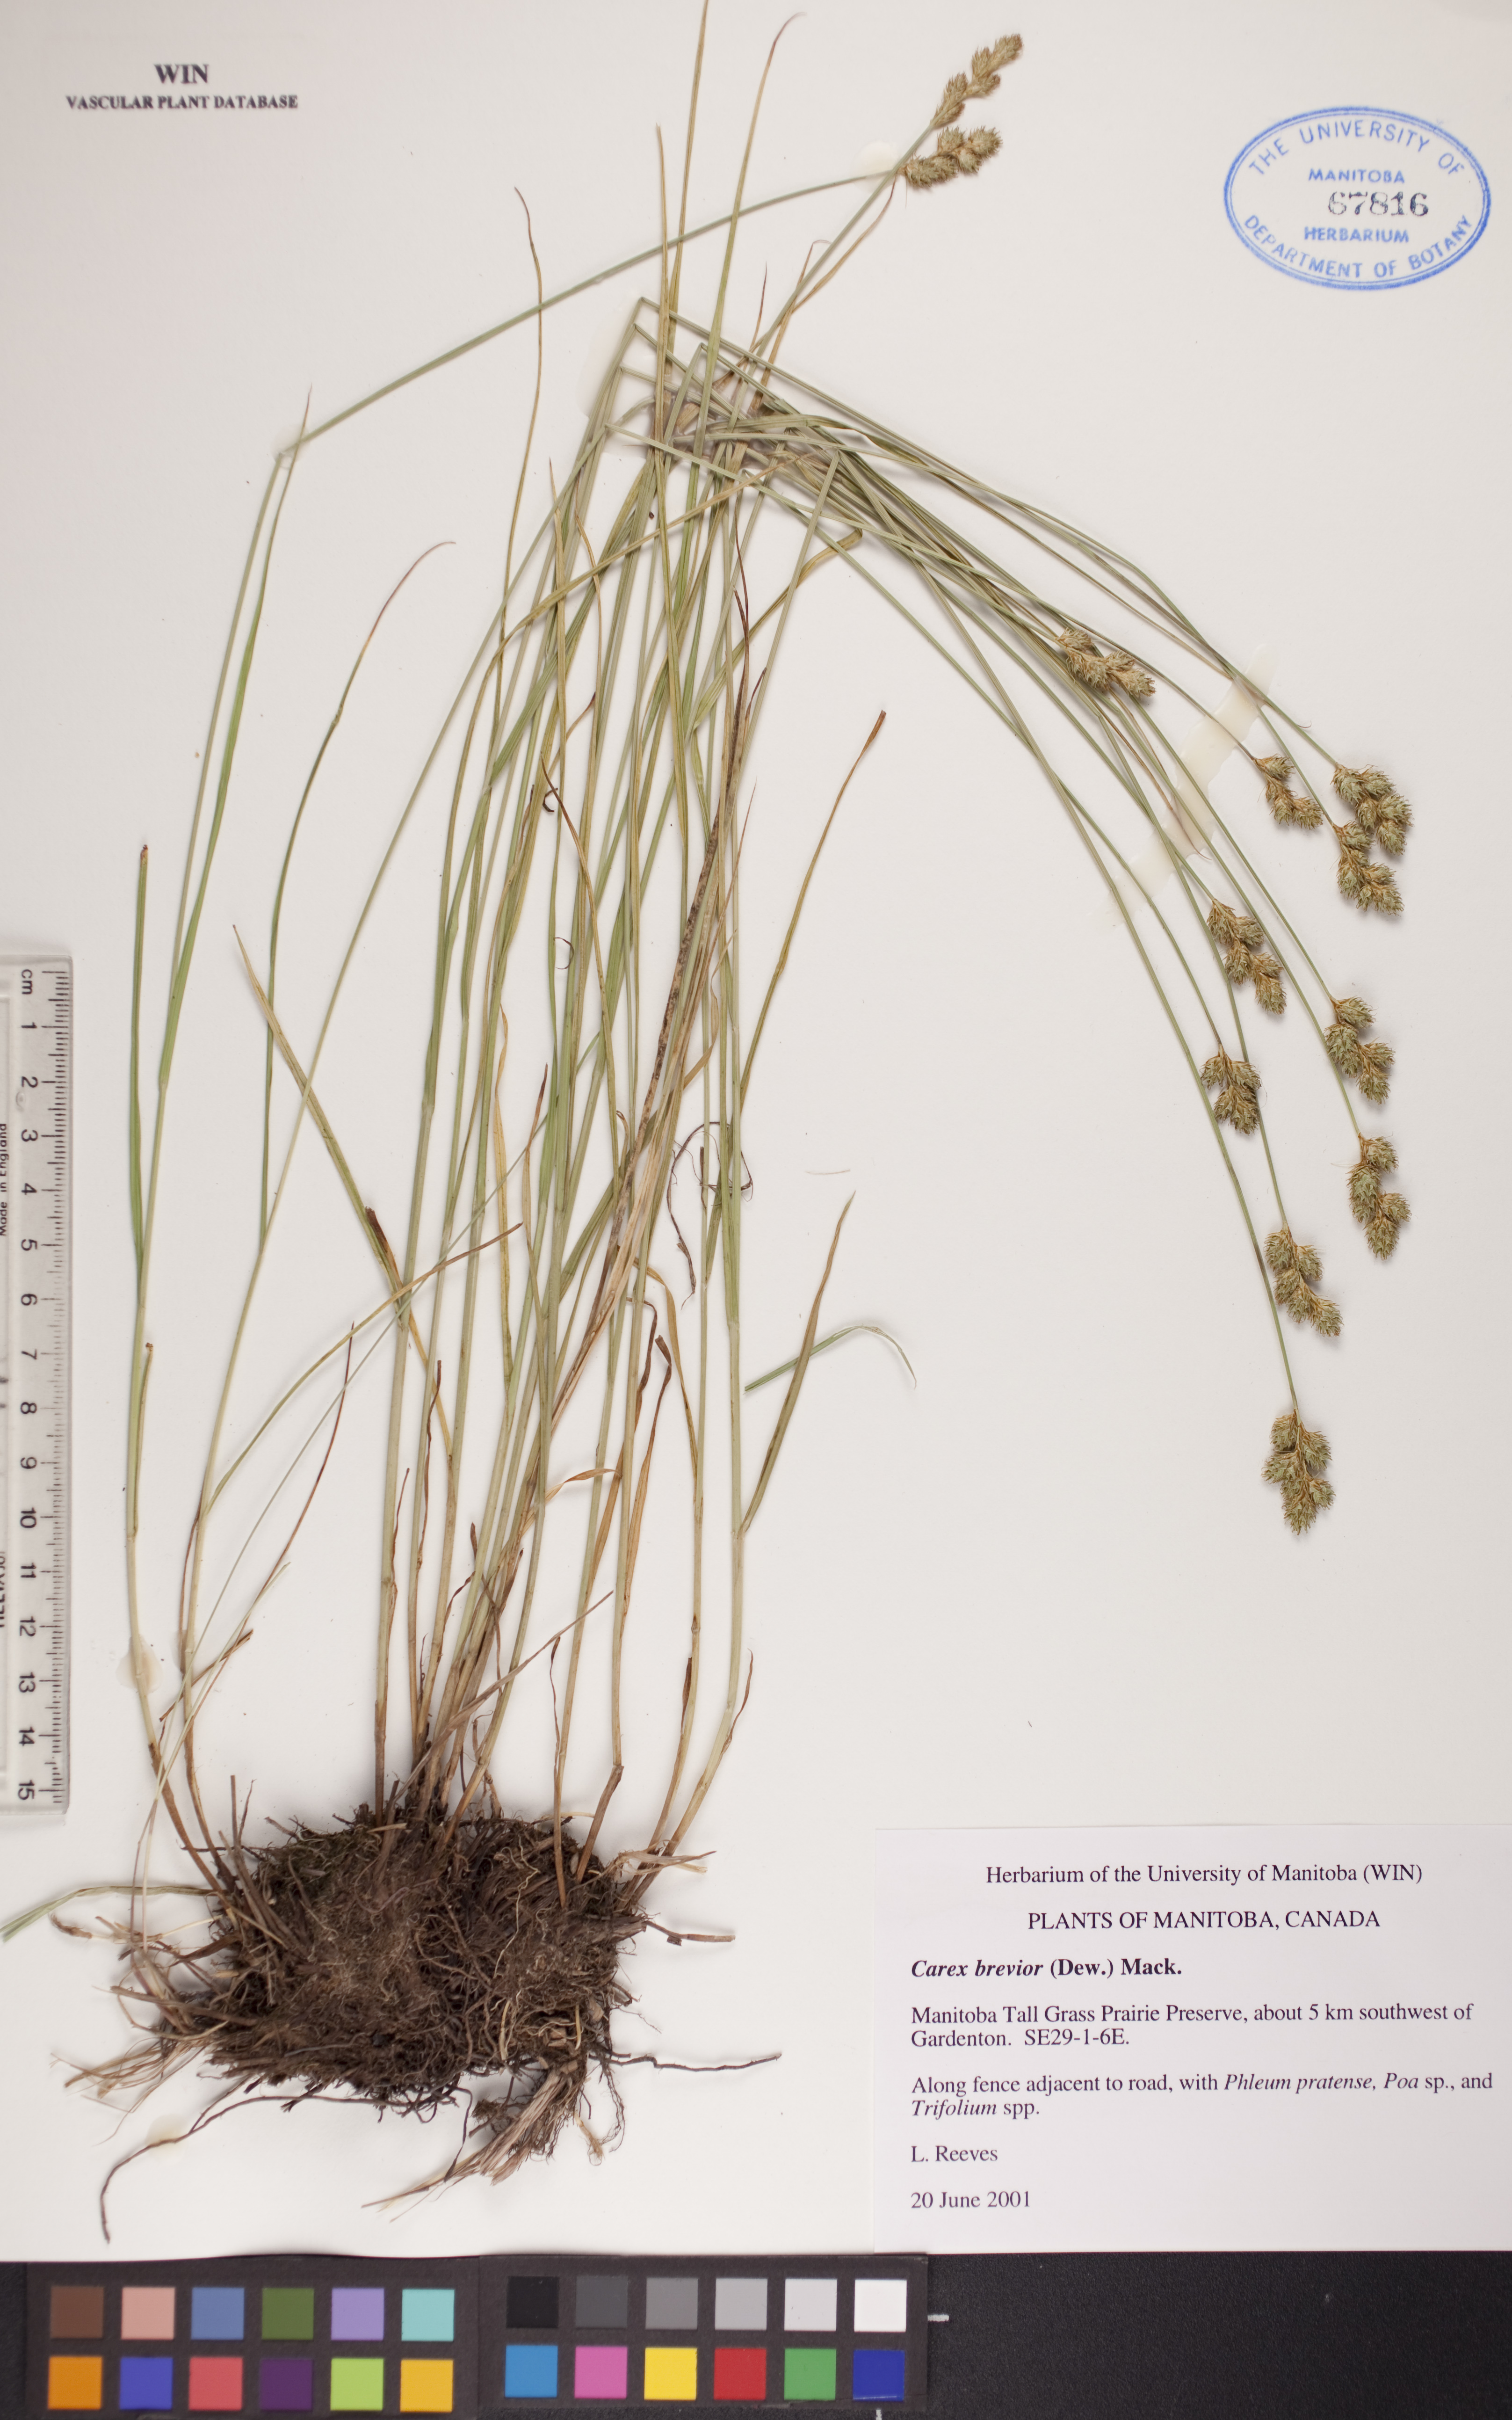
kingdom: Plantae
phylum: Tracheophyta
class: Liliopsida
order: Poales
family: Cyperaceae
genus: Carex
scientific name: Carex brevior
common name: Brevior sedge
